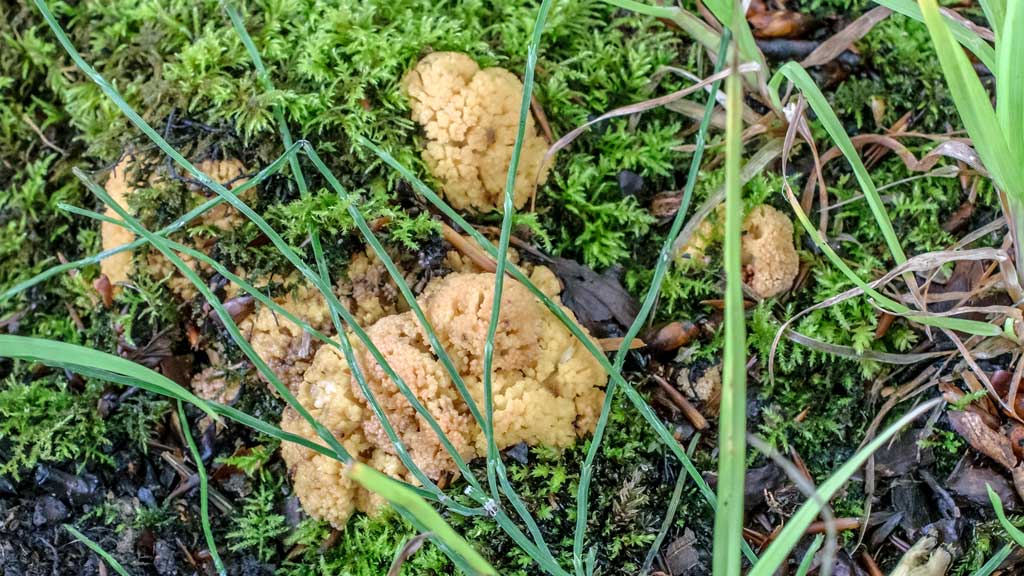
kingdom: Fungi
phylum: Basidiomycota
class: Agaricomycetes
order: Gomphales
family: Gomphaceae
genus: Ramaria
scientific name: Ramaria sanguinea
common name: blodplettet koralsvamp
